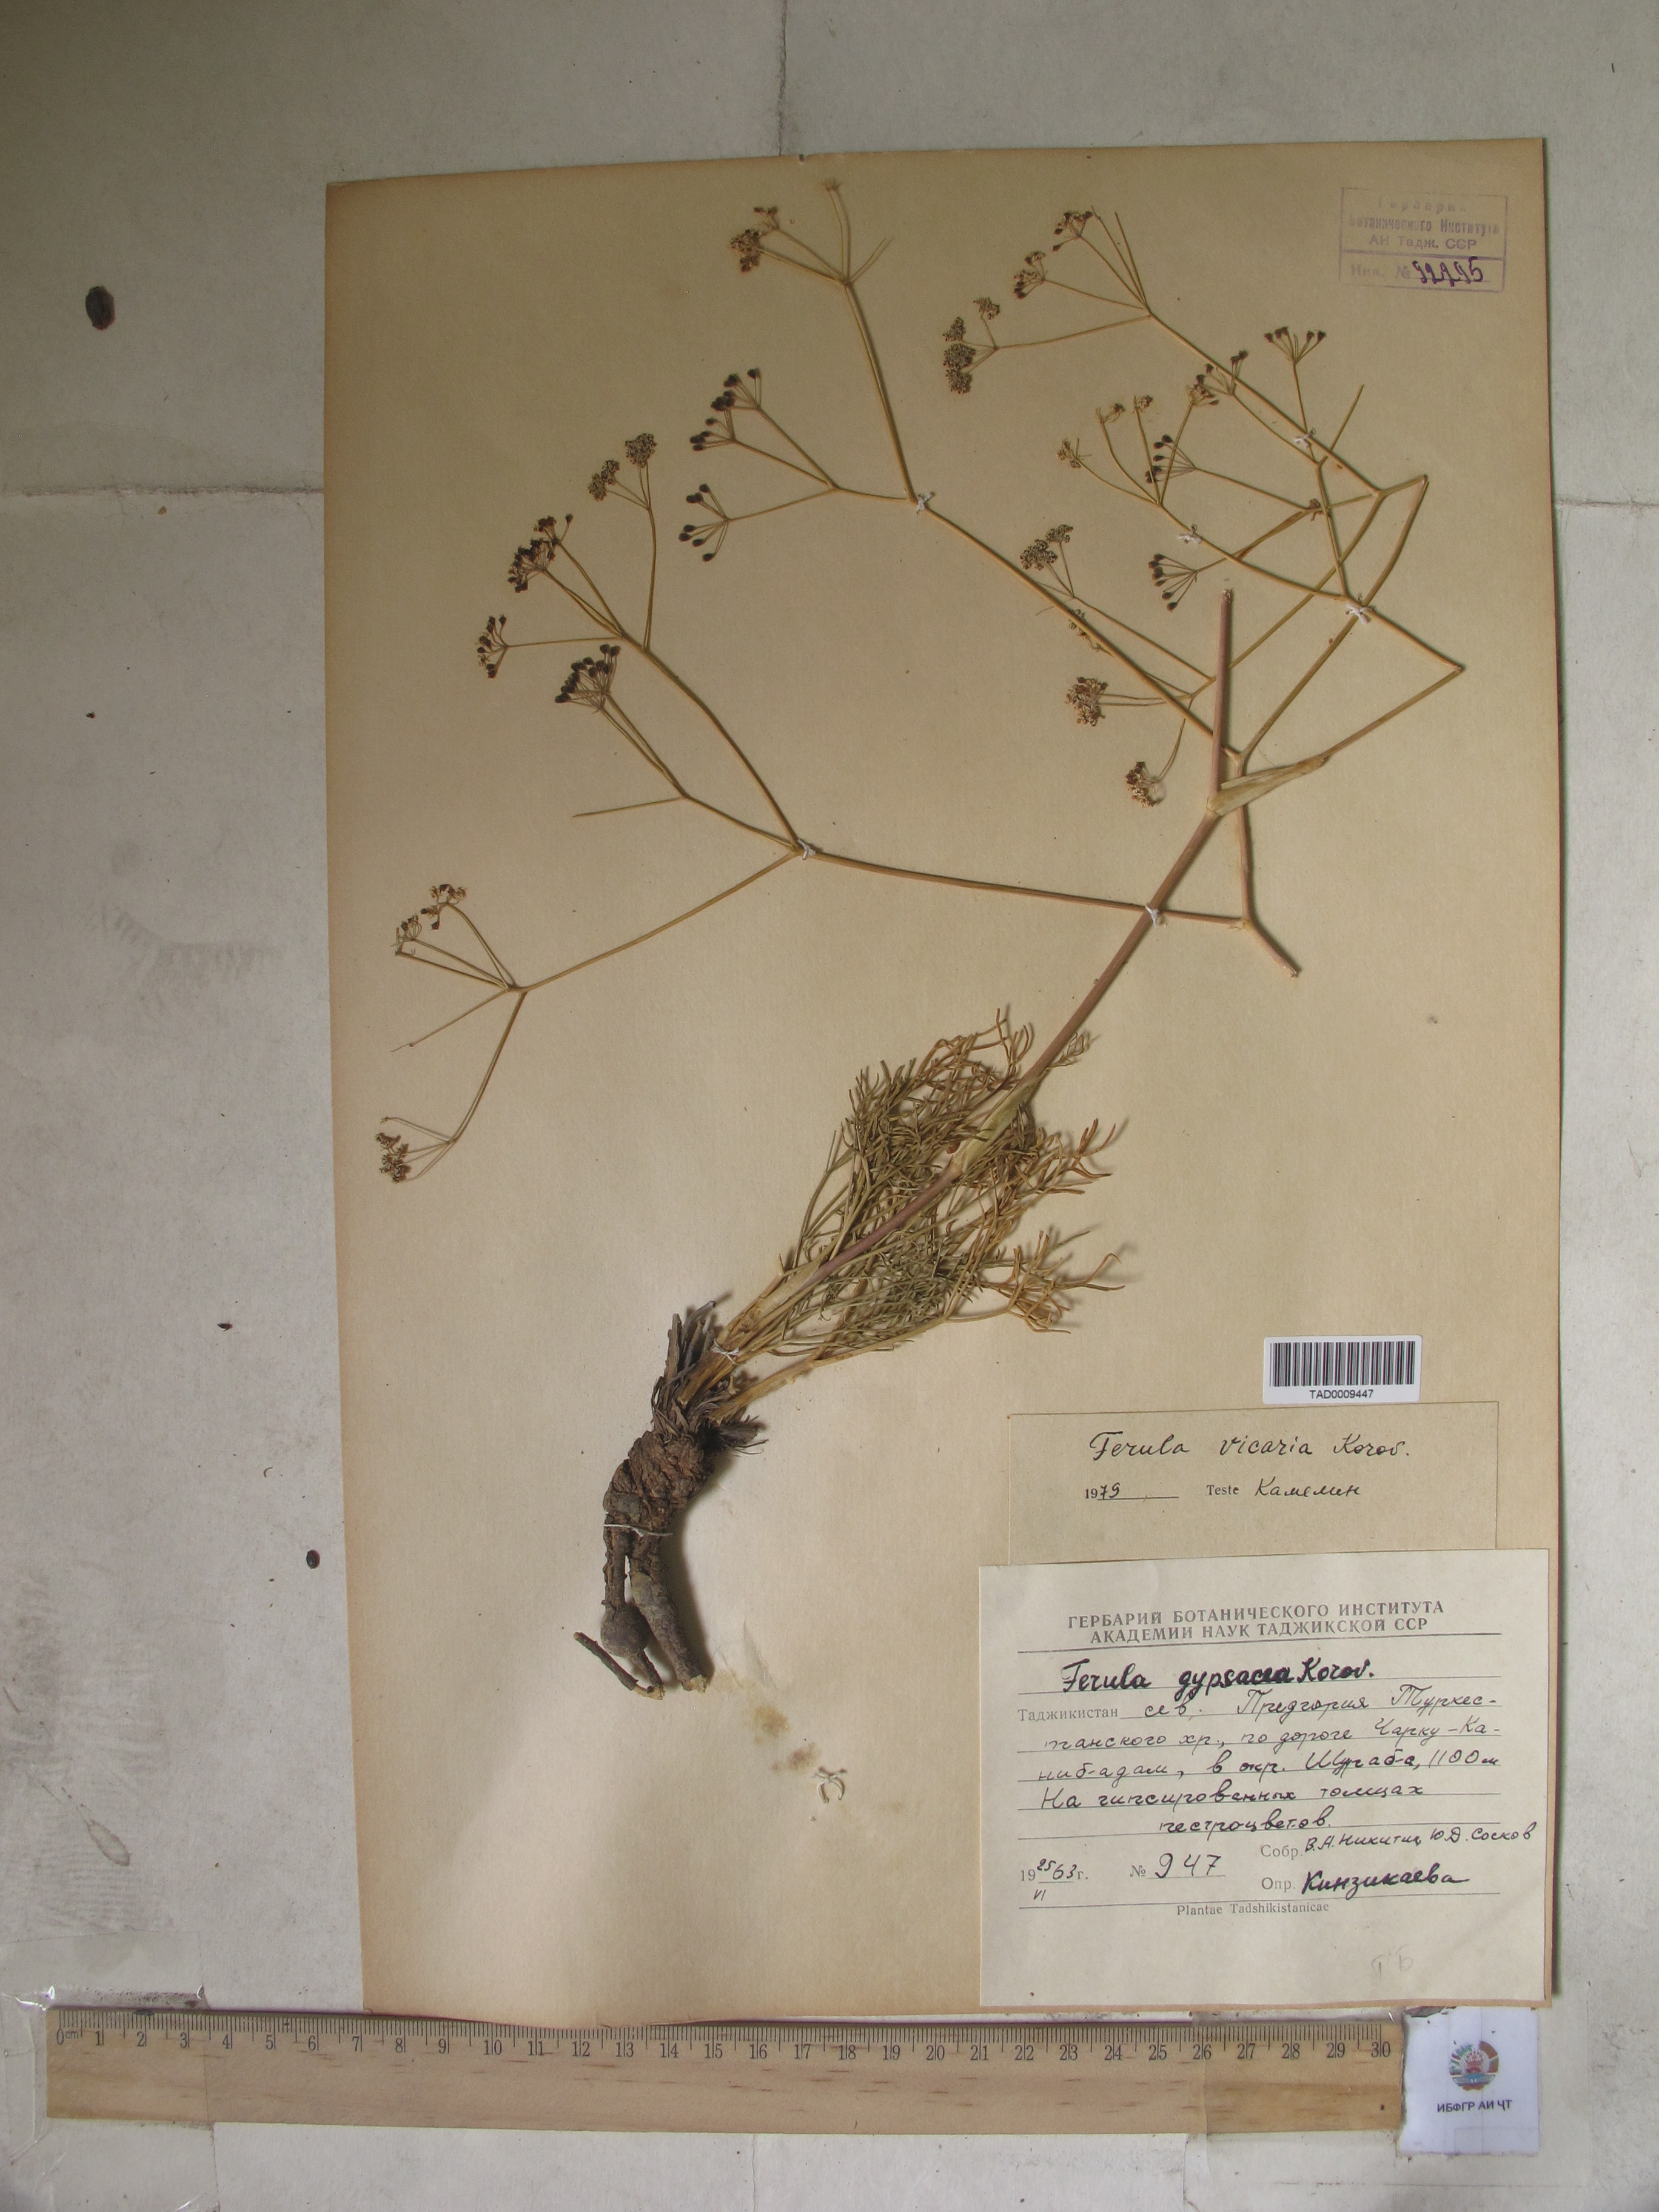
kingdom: Plantae
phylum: Tracheophyta
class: Magnoliopsida
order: Apiales
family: Apiaceae
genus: Ferula
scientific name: Ferula vicaria
